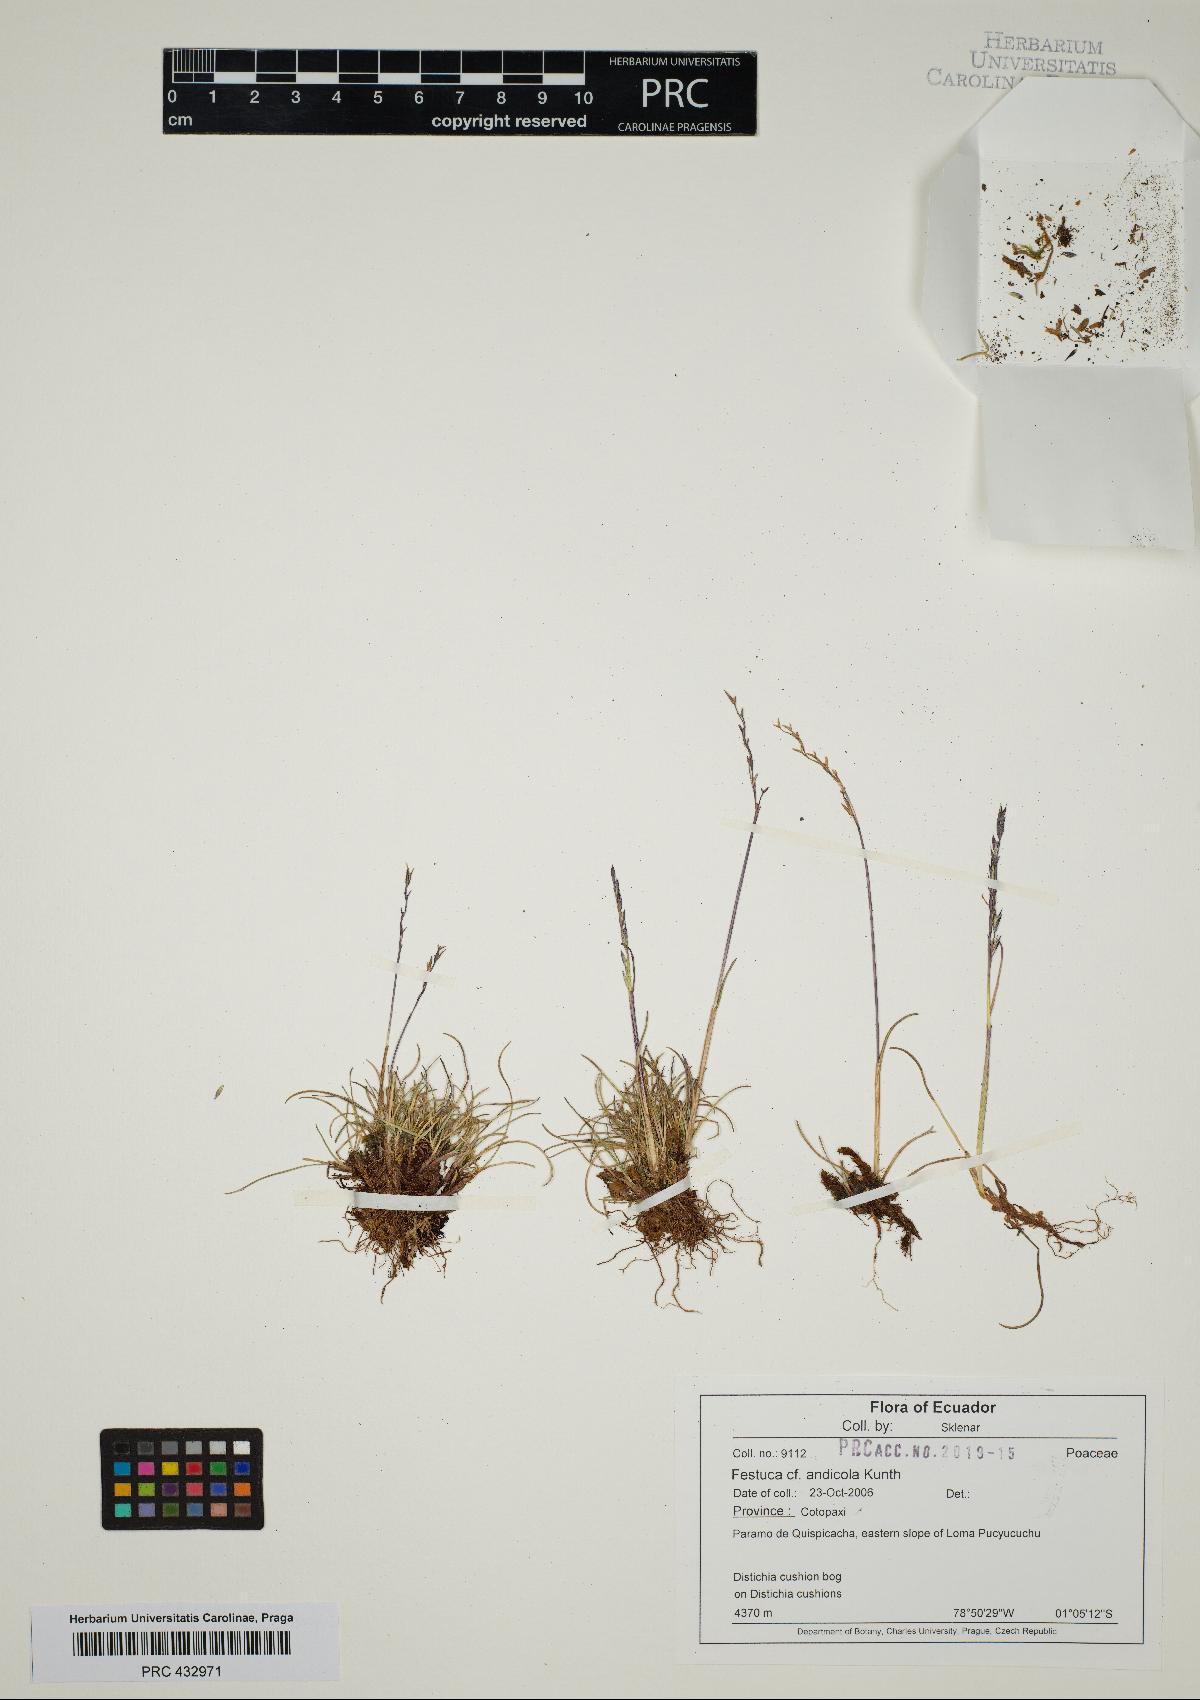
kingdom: Plantae
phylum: Tracheophyta
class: Liliopsida
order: Poales
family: Poaceae
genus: Festuca
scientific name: Festuca andicola
